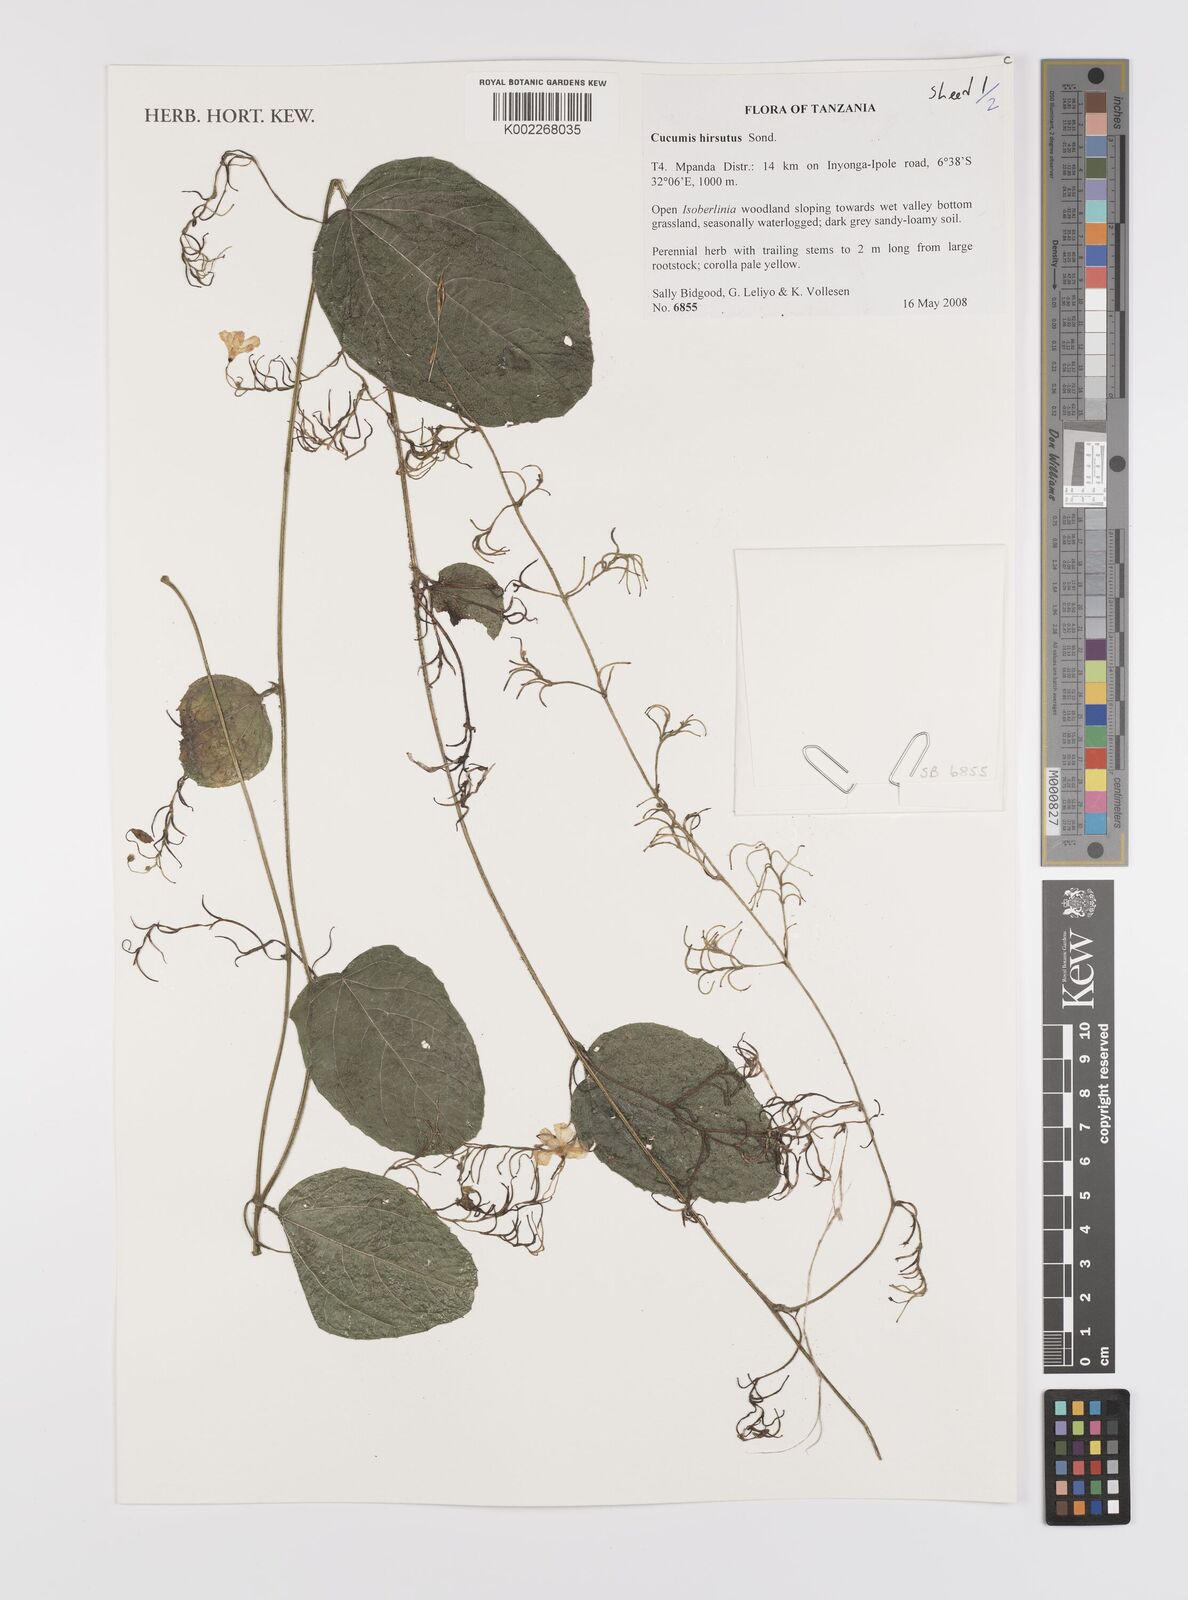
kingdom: Plantae
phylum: Tracheophyta
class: Magnoliopsida
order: Cucurbitales
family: Cucurbitaceae
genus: Cucumis
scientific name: Cucumis hirsutus
